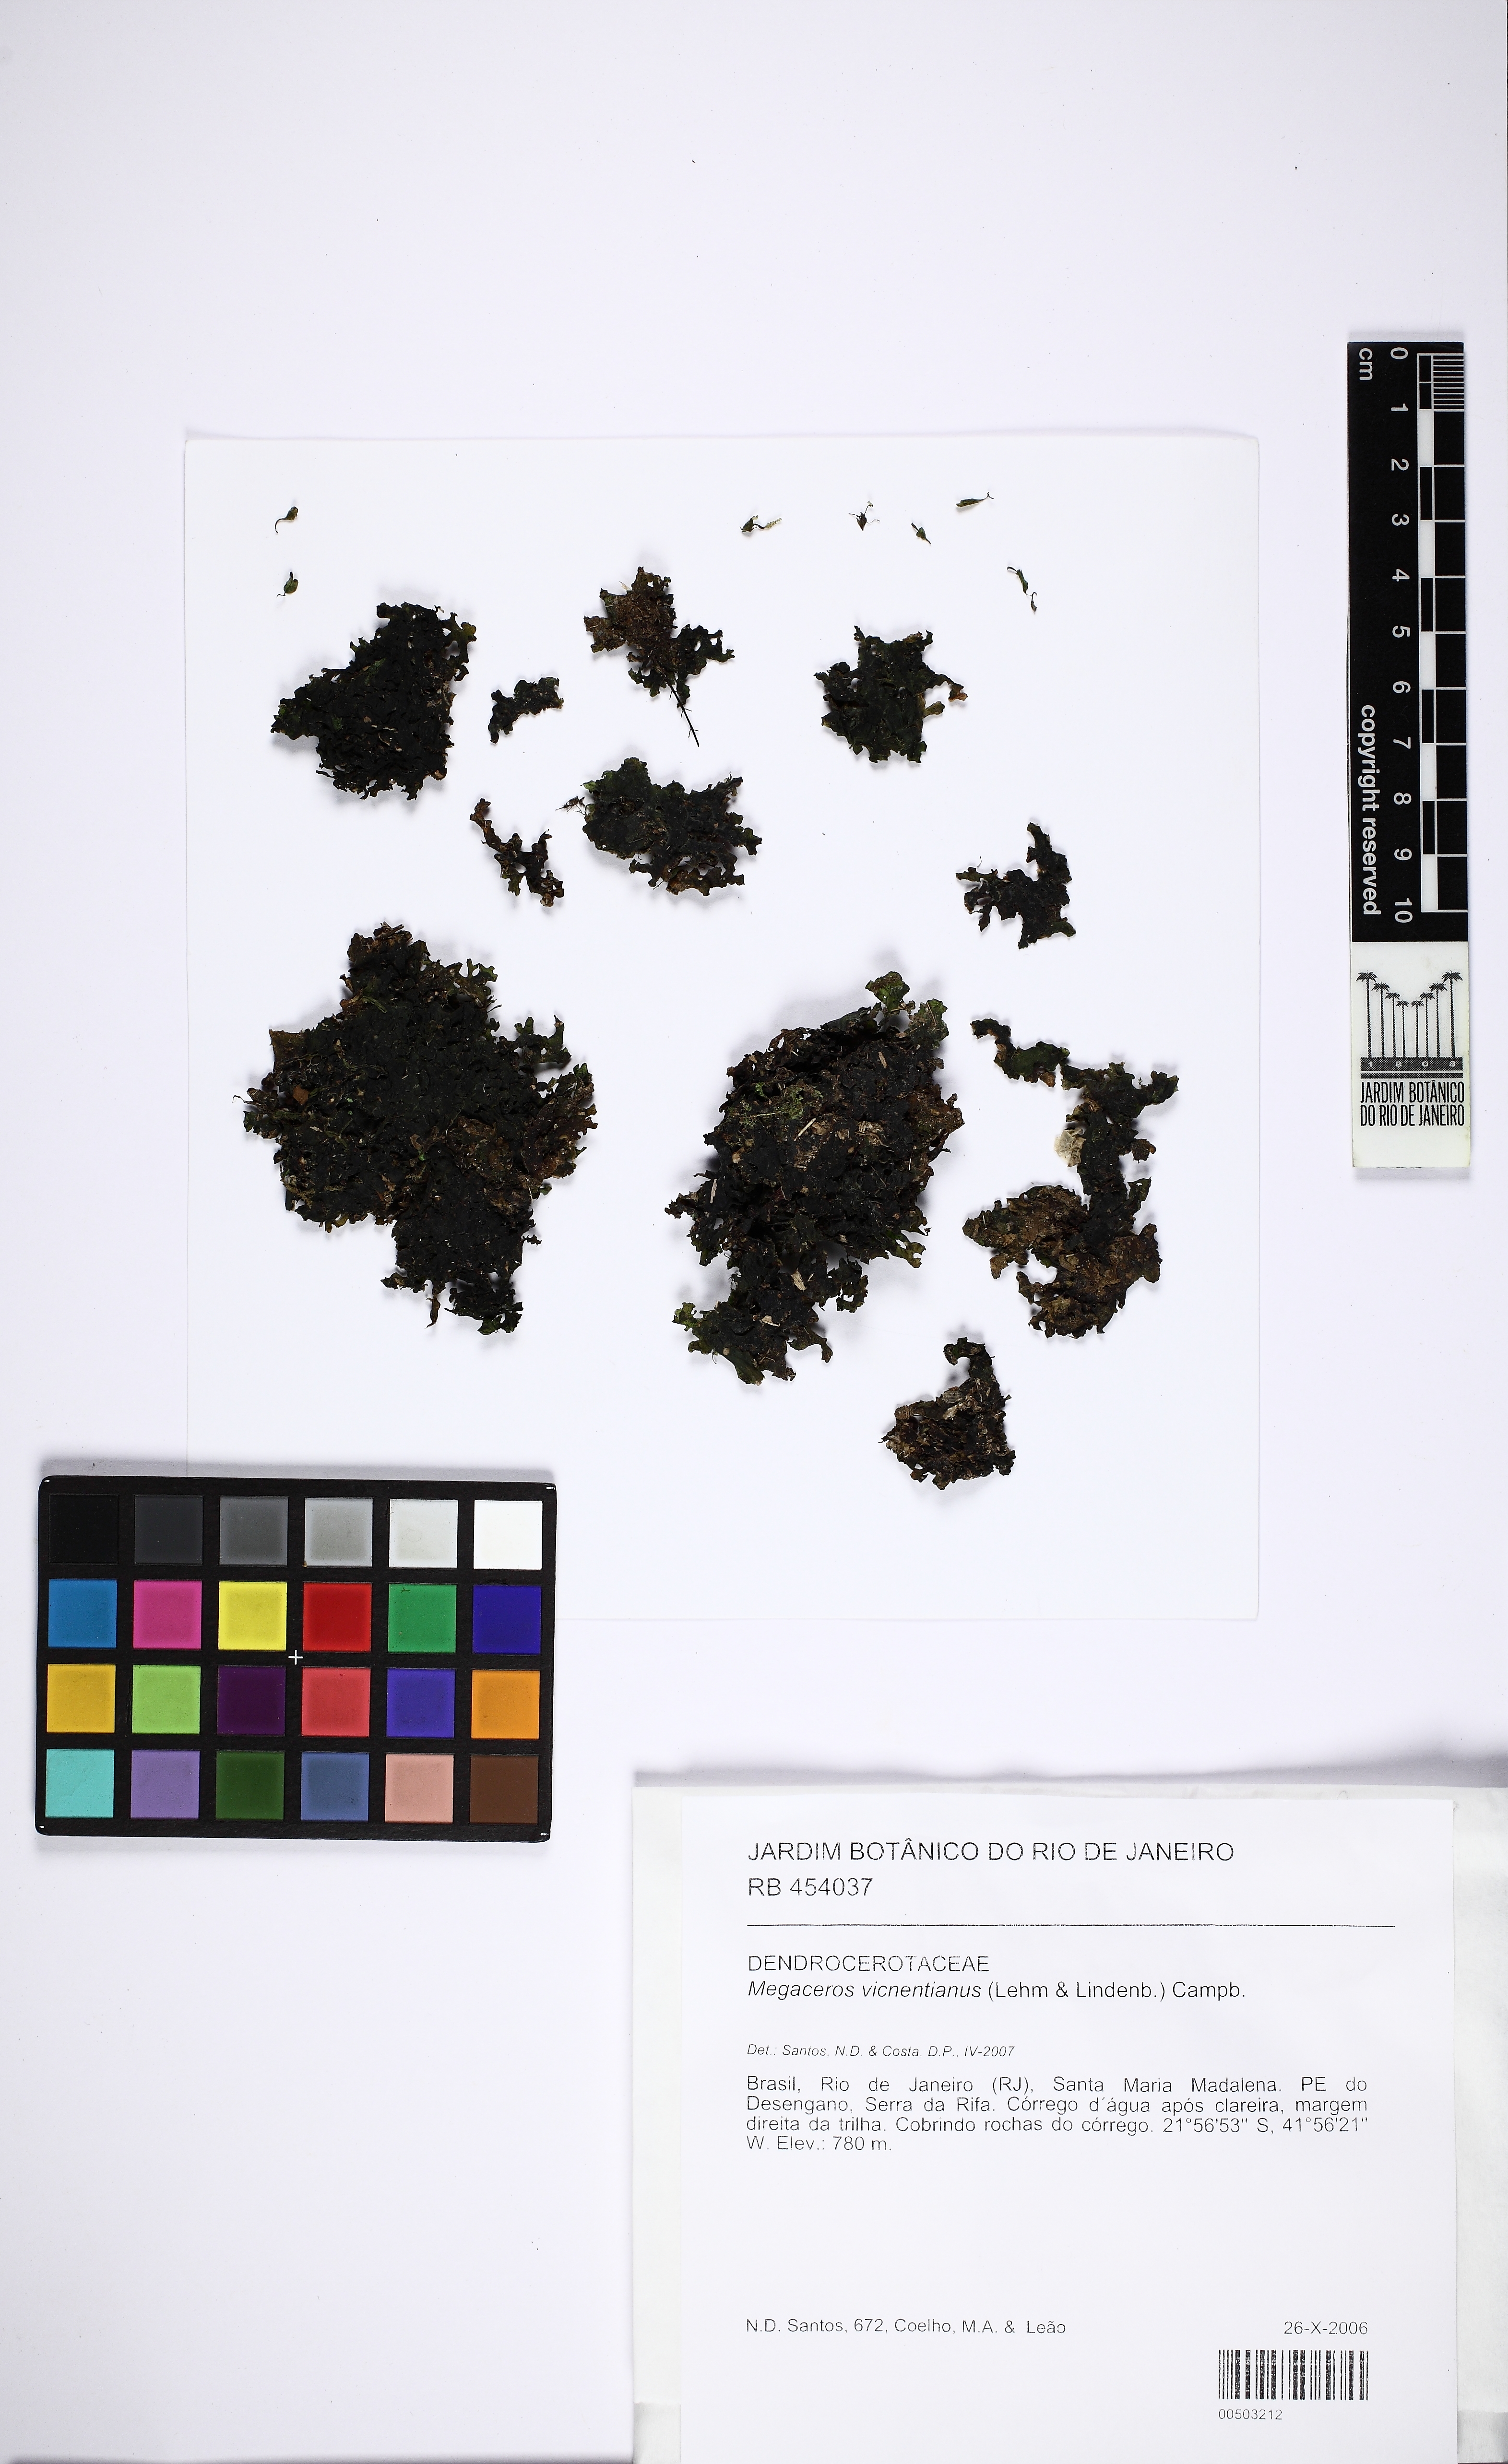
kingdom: Plantae
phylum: Anthocerotophyta
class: Anthocerotopsida
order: Dendrocerotales
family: Dendrocerotaceae
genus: Nothoceros
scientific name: Nothoceros vincentianus
